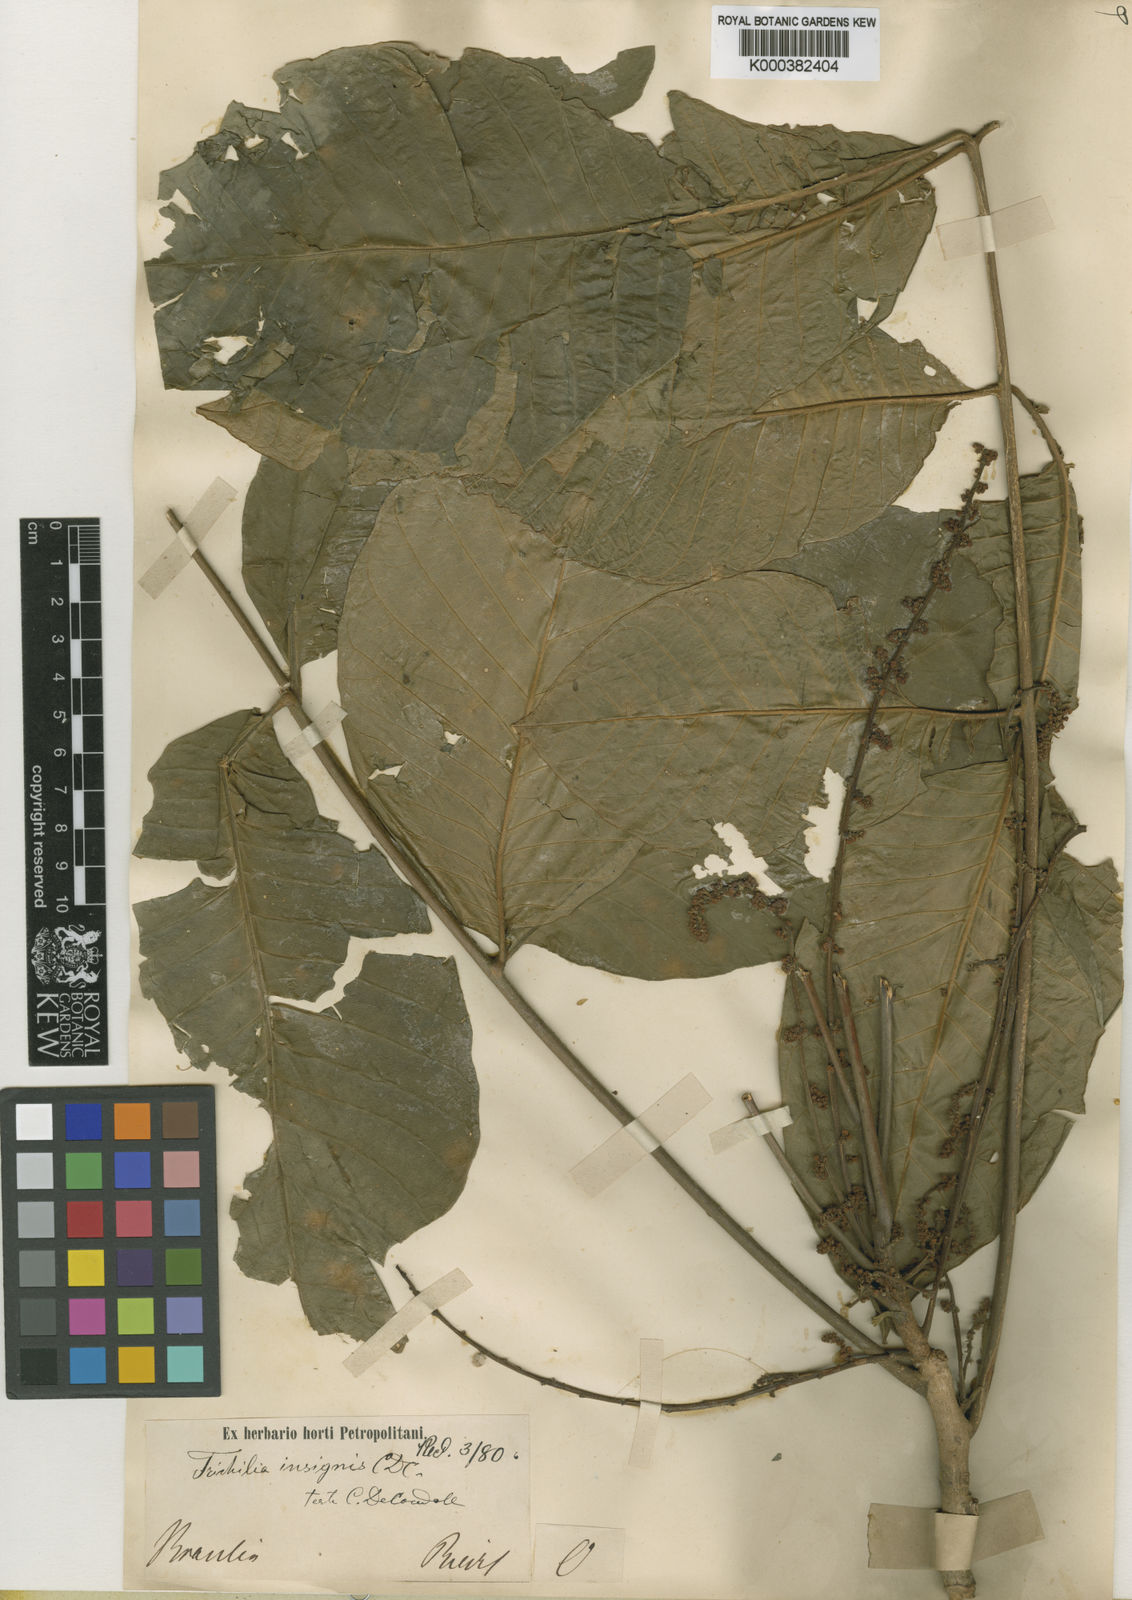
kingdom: Plantae
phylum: Tracheophyta
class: Magnoliopsida
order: Sapindales
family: Meliaceae
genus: Trichilia
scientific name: Trichilia martiana
